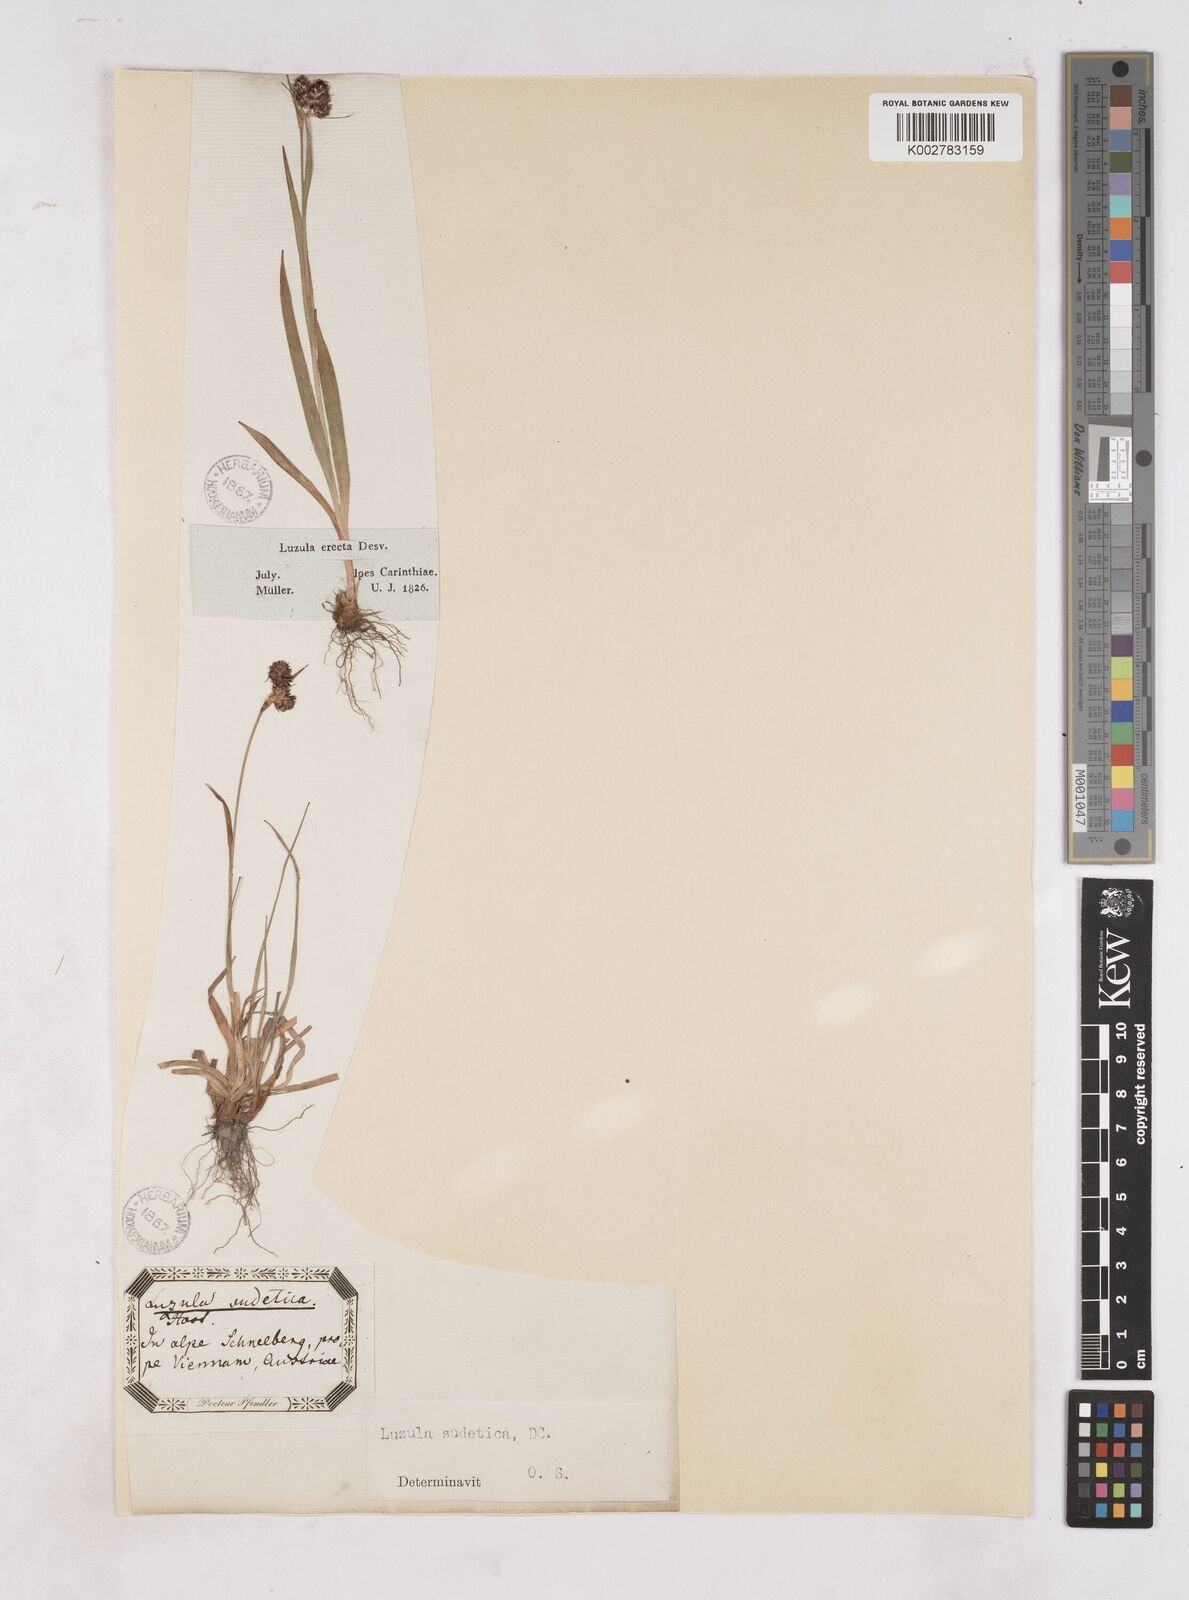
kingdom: Plantae
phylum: Tracheophyta
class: Liliopsida
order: Poales
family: Juncaceae
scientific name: Juncaceae
